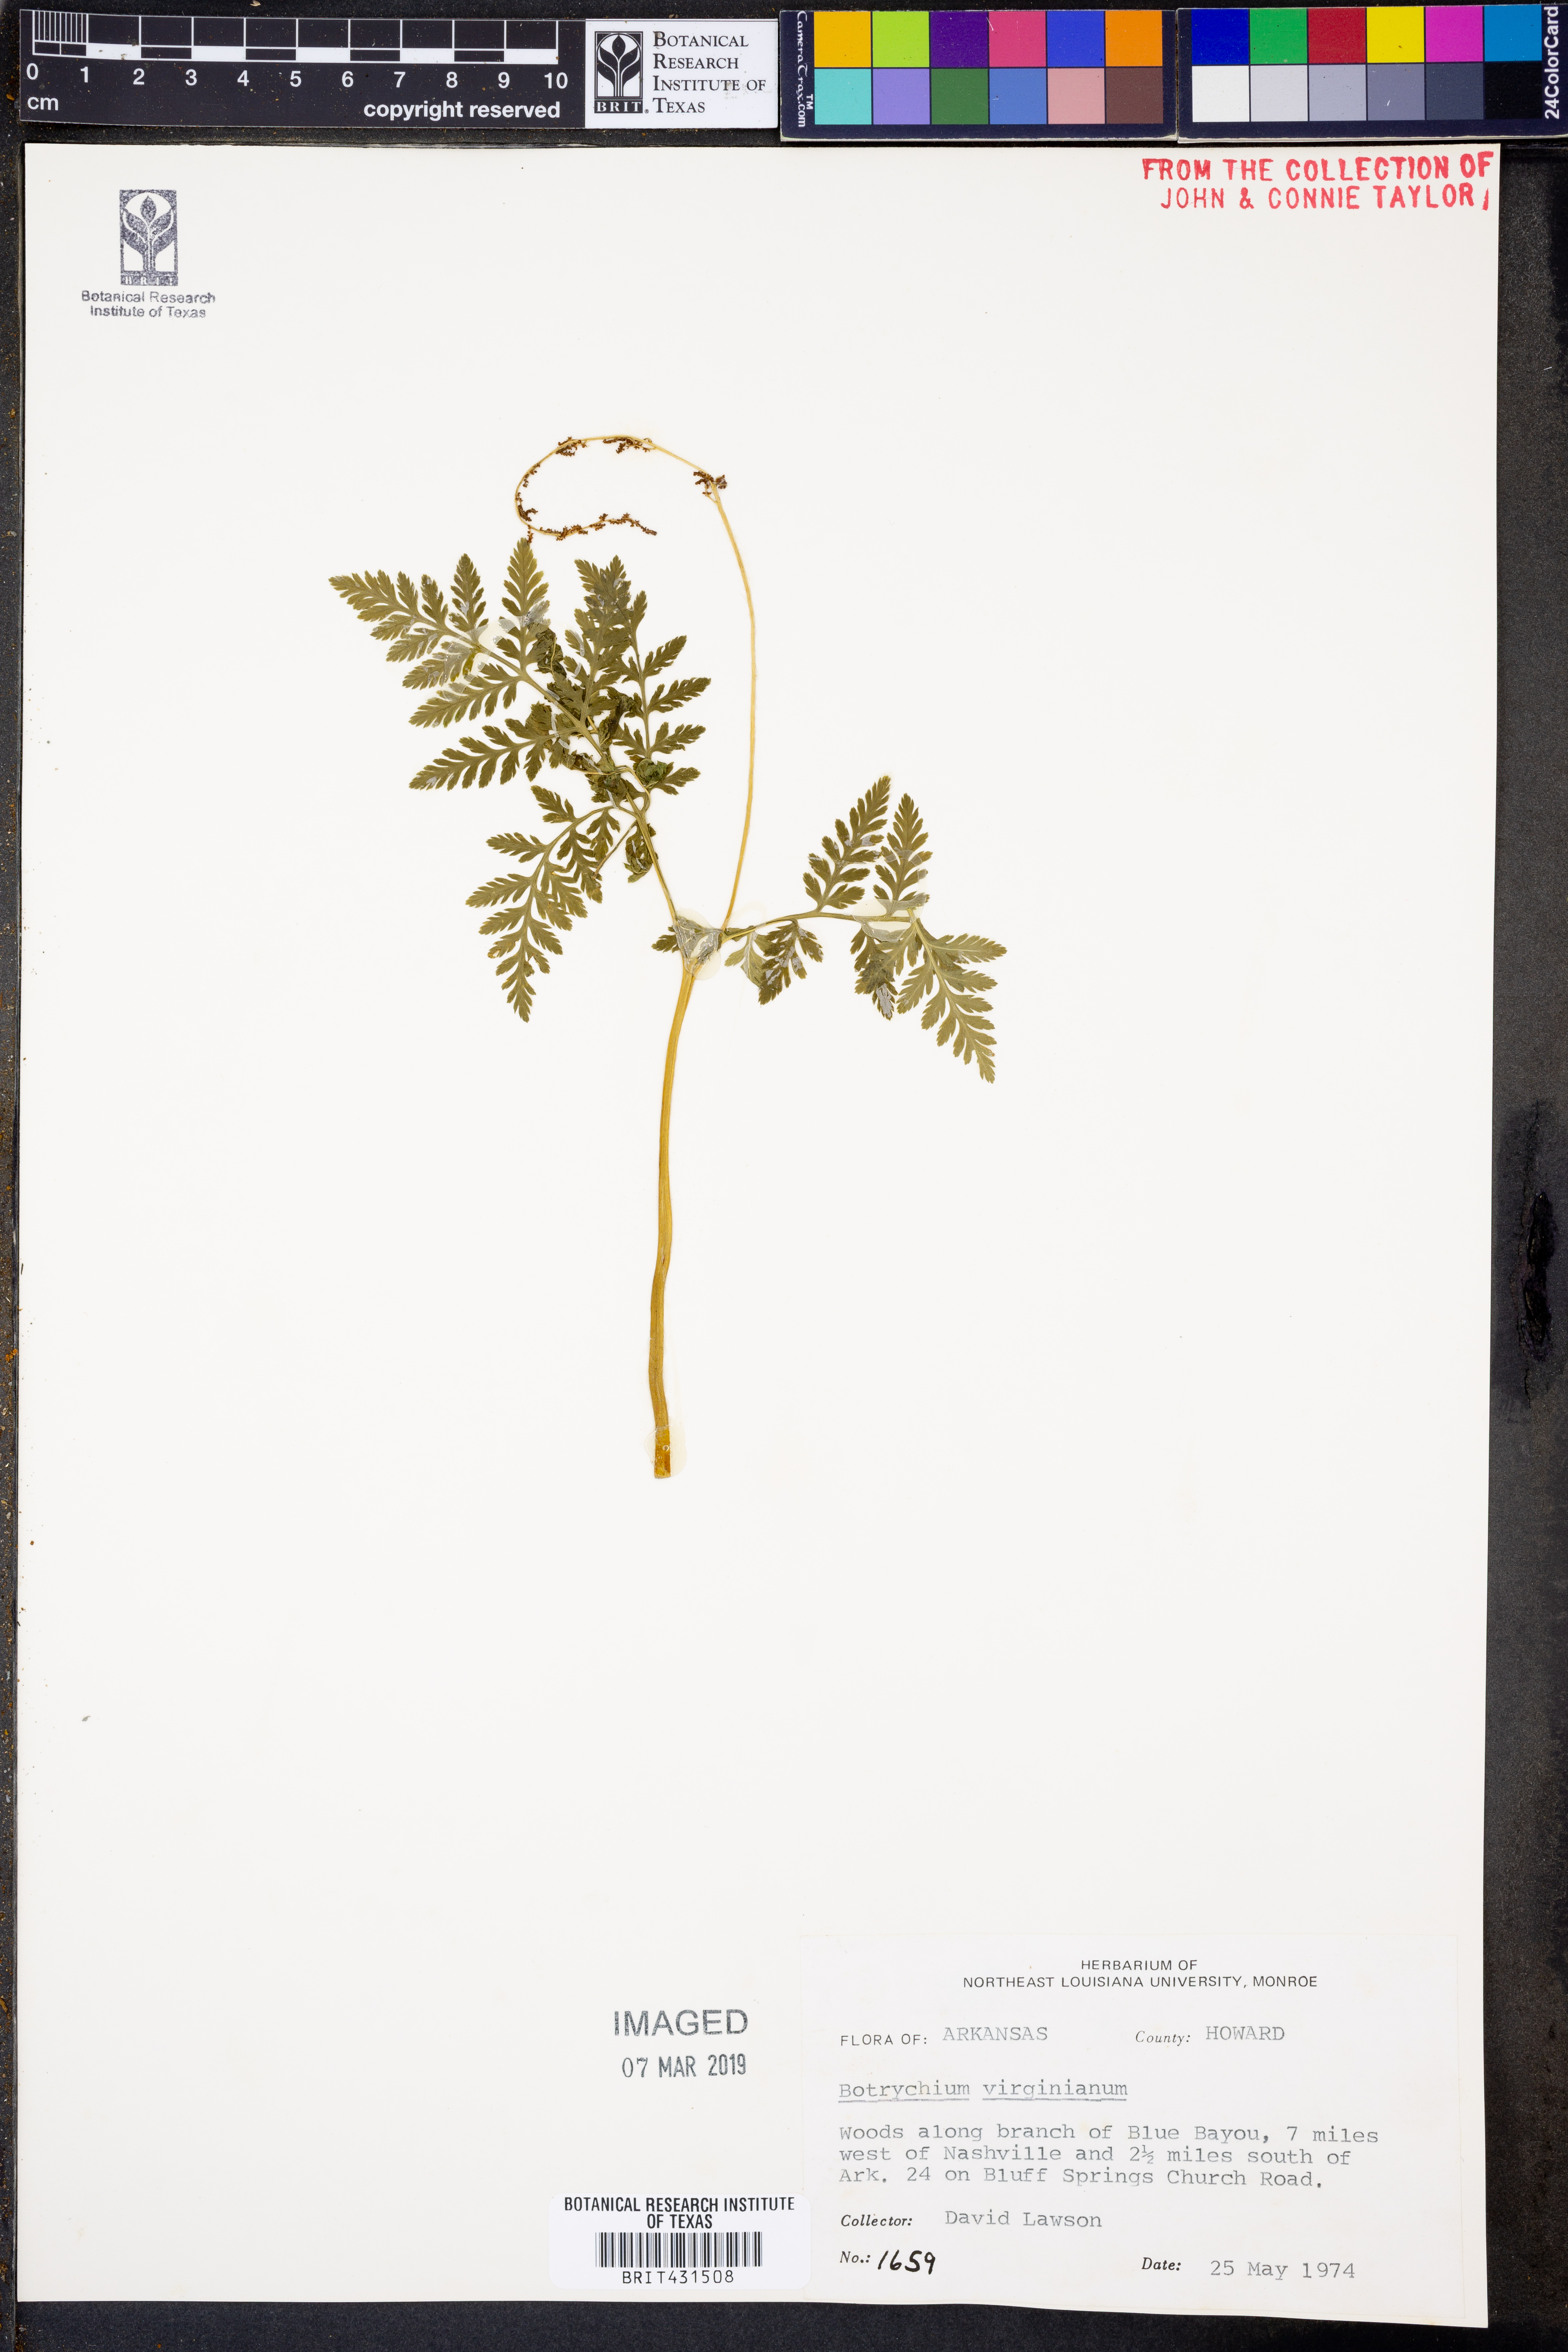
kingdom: Plantae
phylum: Tracheophyta
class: Polypodiopsida
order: Ophioglossales
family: Ophioglossaceae
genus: Botrypus
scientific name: Botrypus virginianus
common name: Common grapefern
